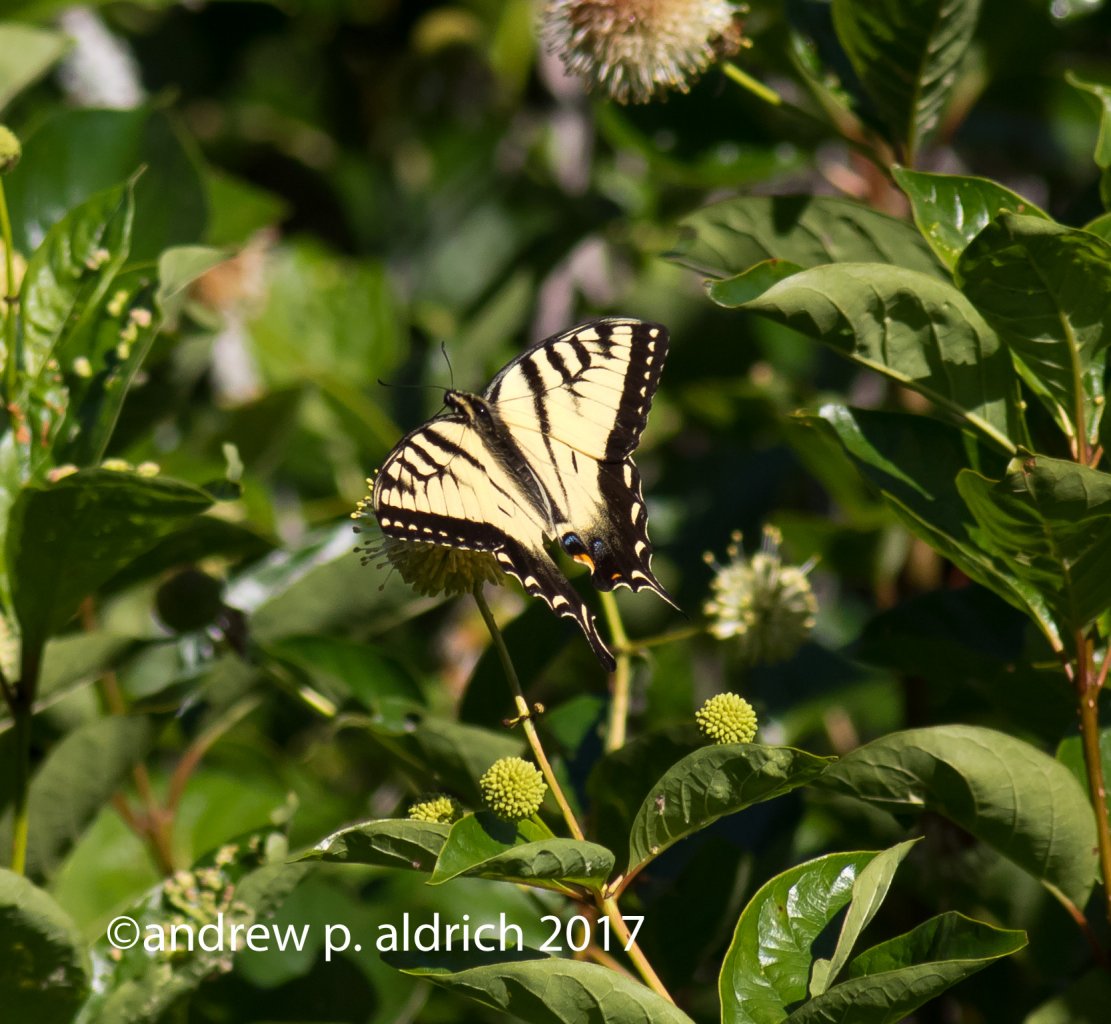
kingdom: Animalia
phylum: Arthropoda
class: Insecta
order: Lepidoptera
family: Papilionidae
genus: Pterourus
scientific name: Pterourus glaucus
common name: Eastern Tiger Swallowtail
